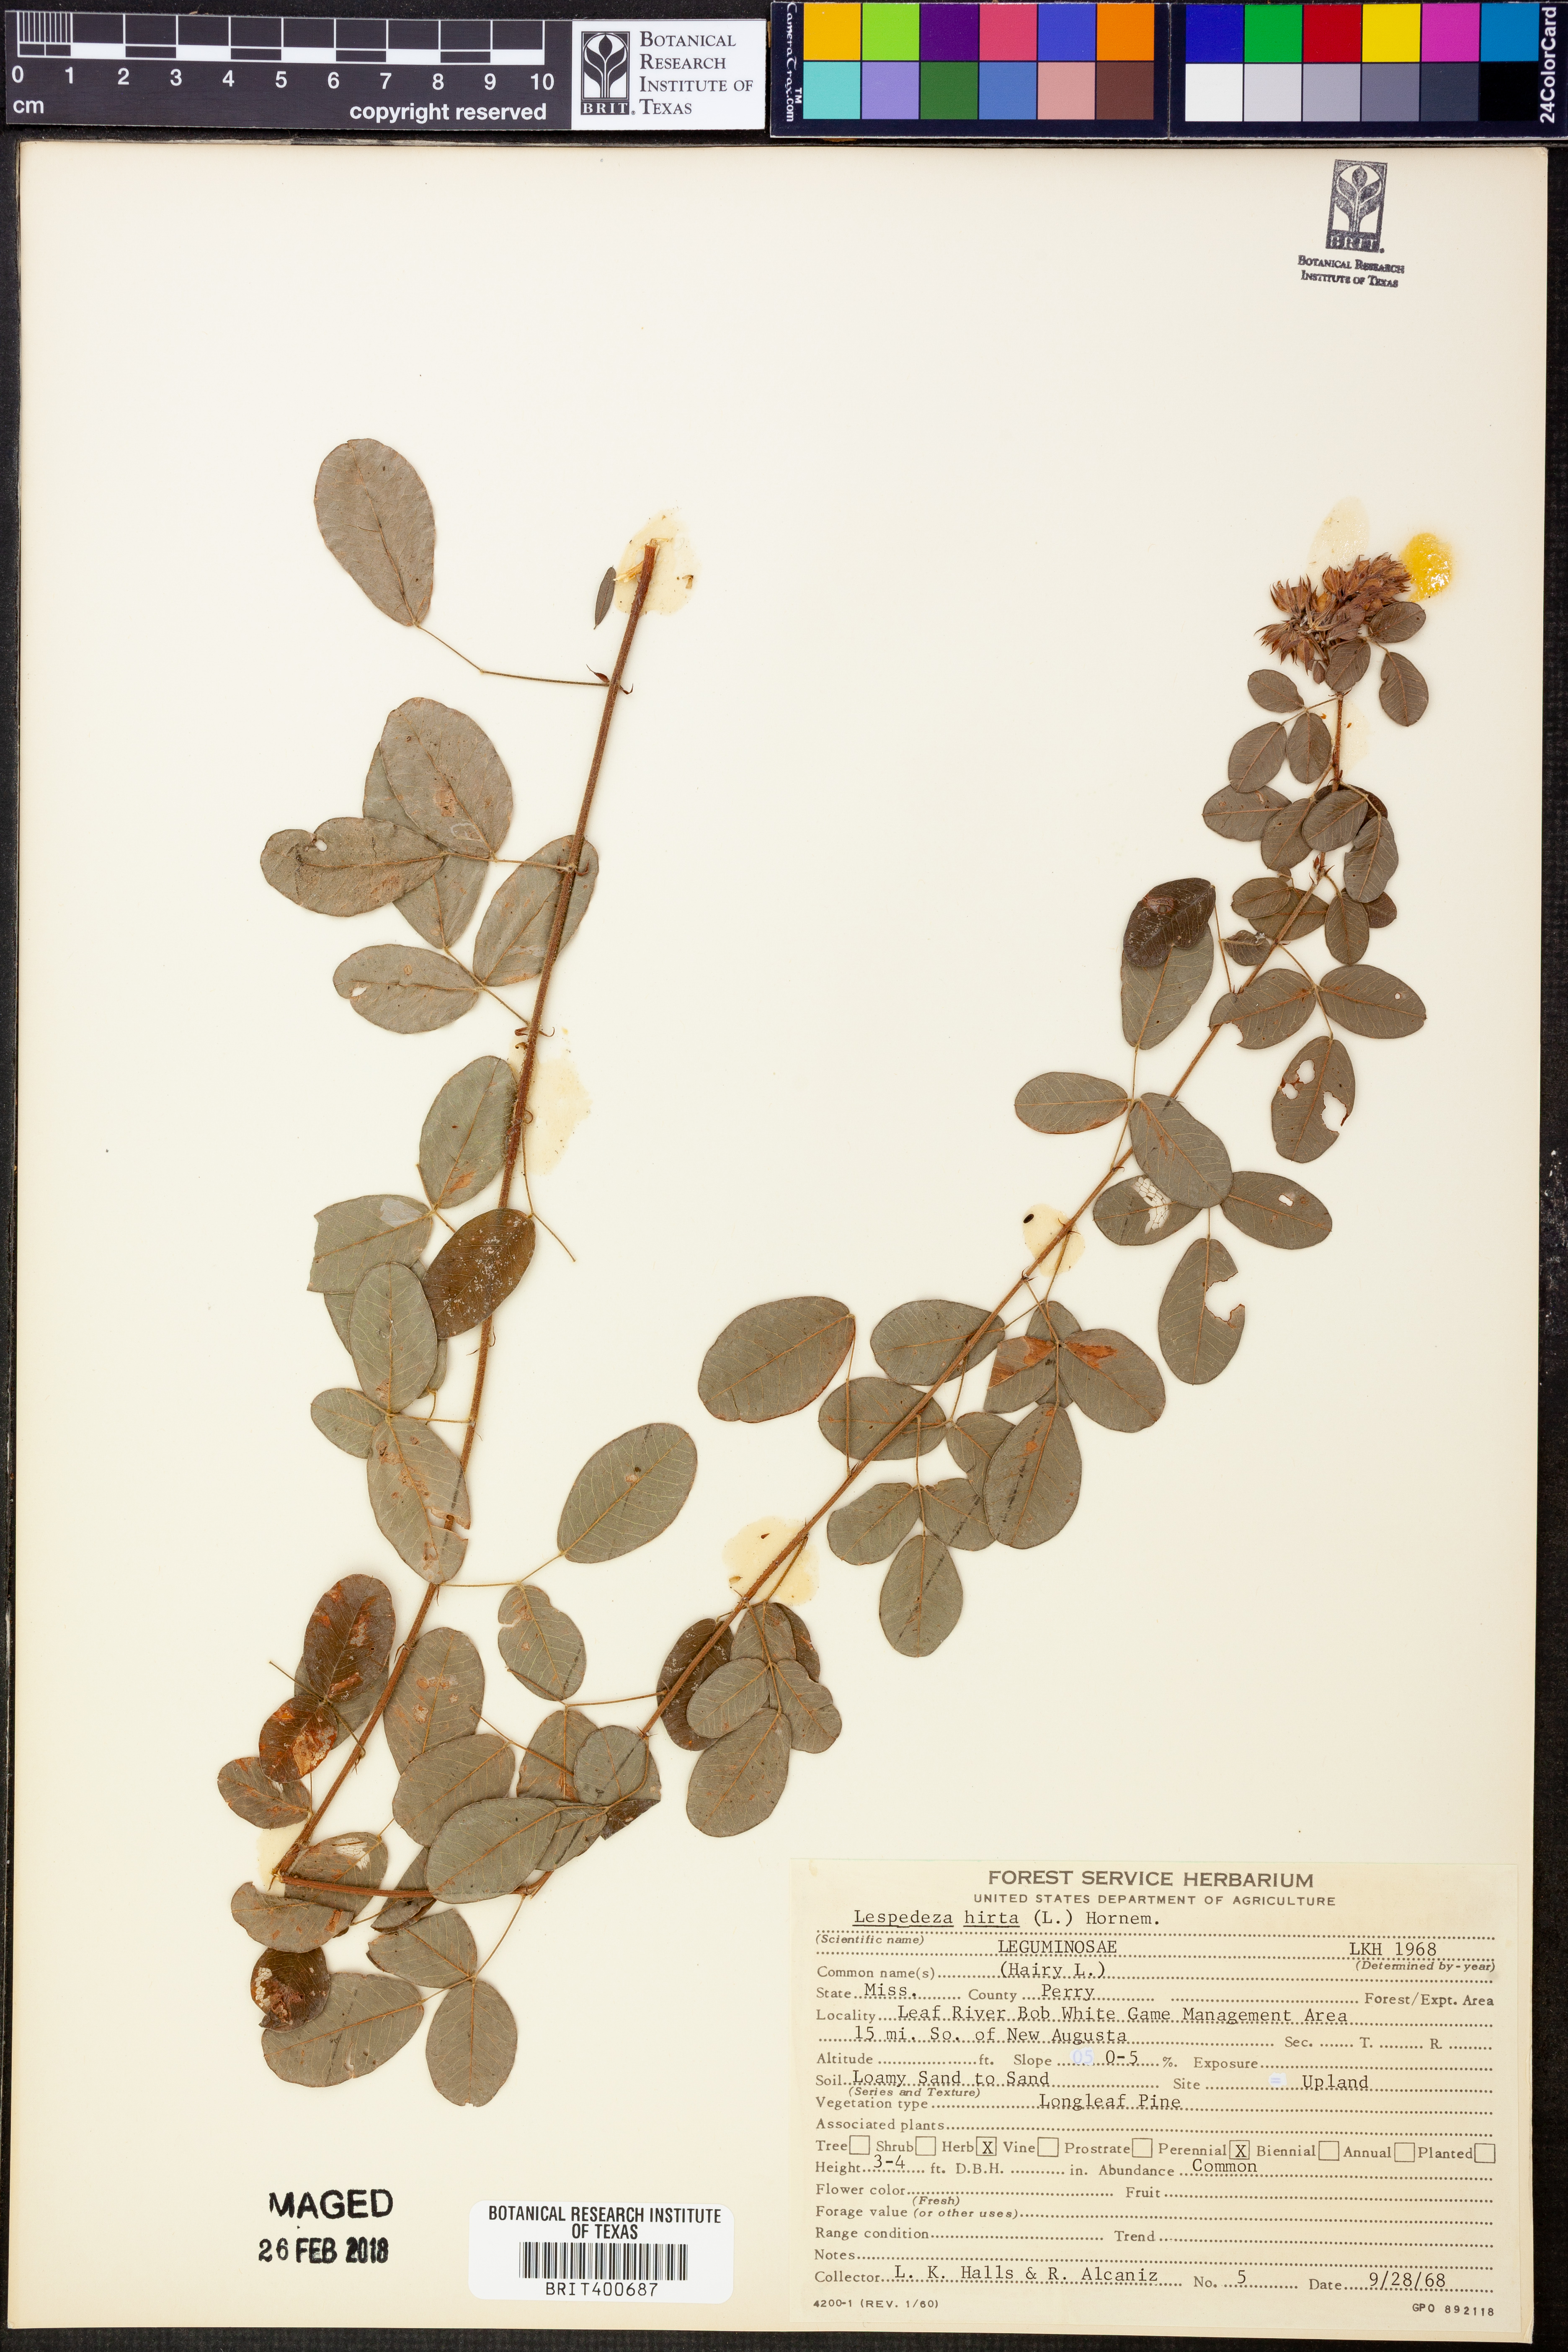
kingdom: Plantae
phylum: Tracheophyta
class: Magnoliopsida
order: Fabales
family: Fabaceae
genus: Lespedeza
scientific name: Lespedeza hirta
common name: Hairy lespedeza
